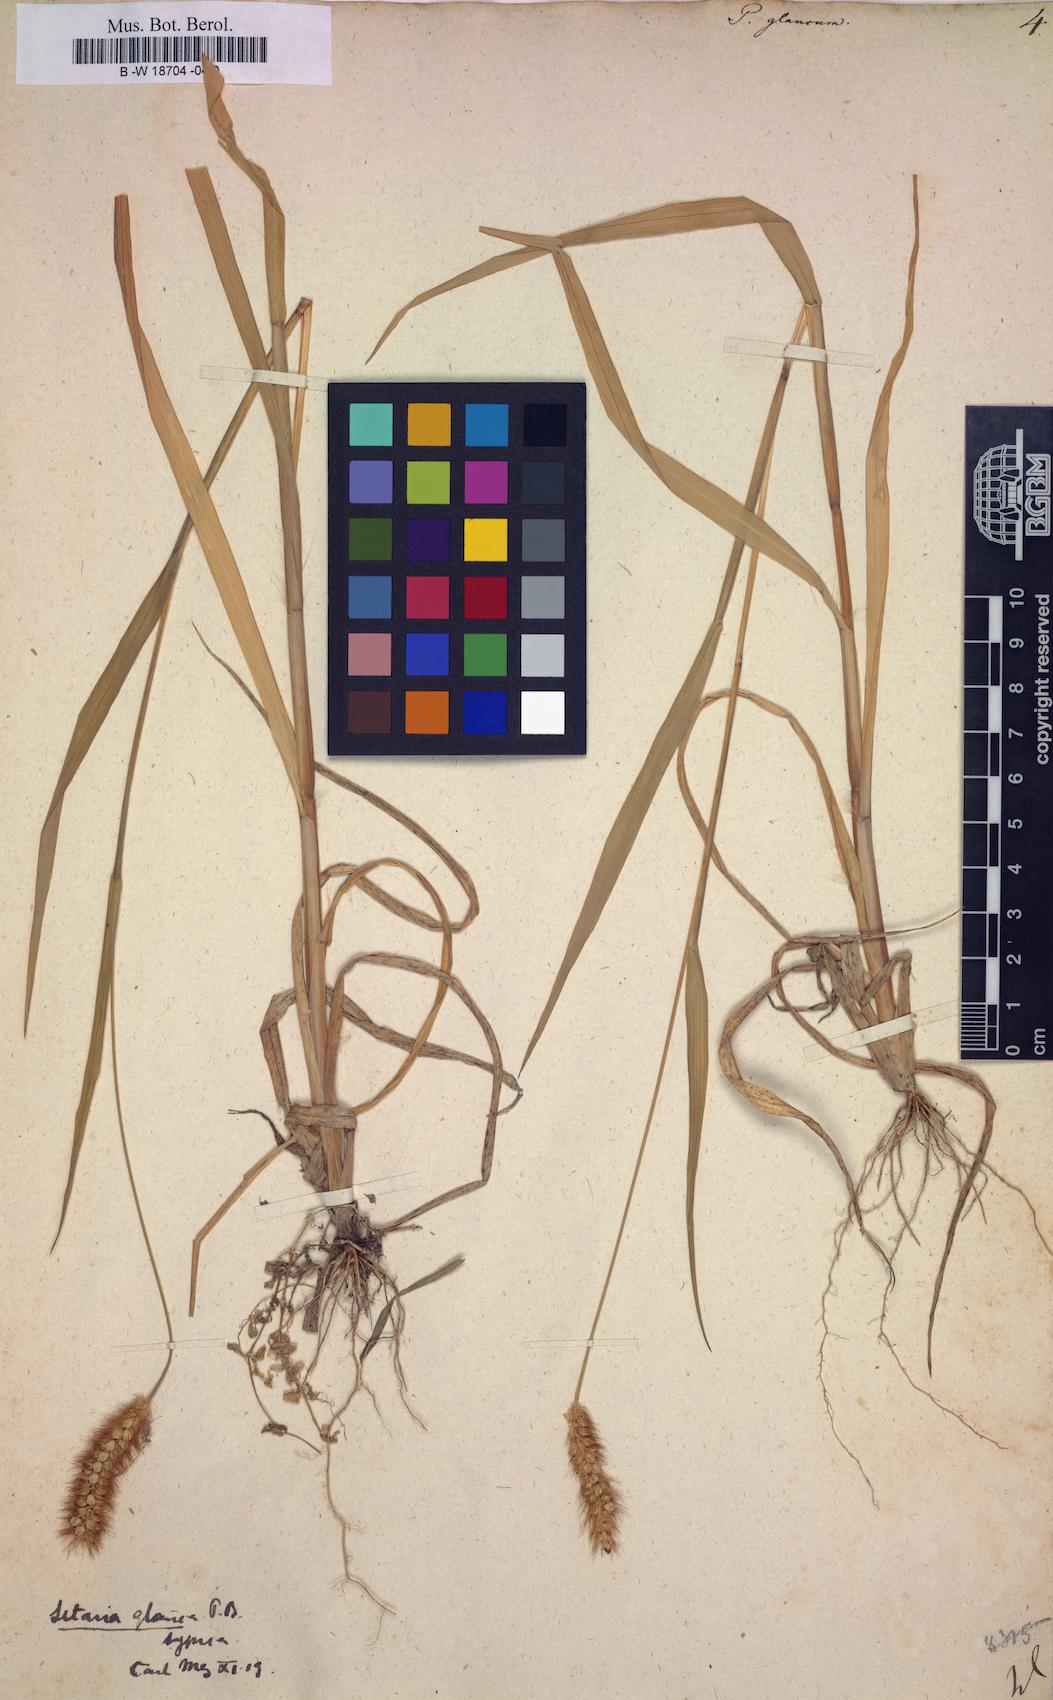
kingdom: Plantae
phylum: Tracheophyta
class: Liliopsida
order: Poales
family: Poaceae
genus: Panicum
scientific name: Panicum glaucum
